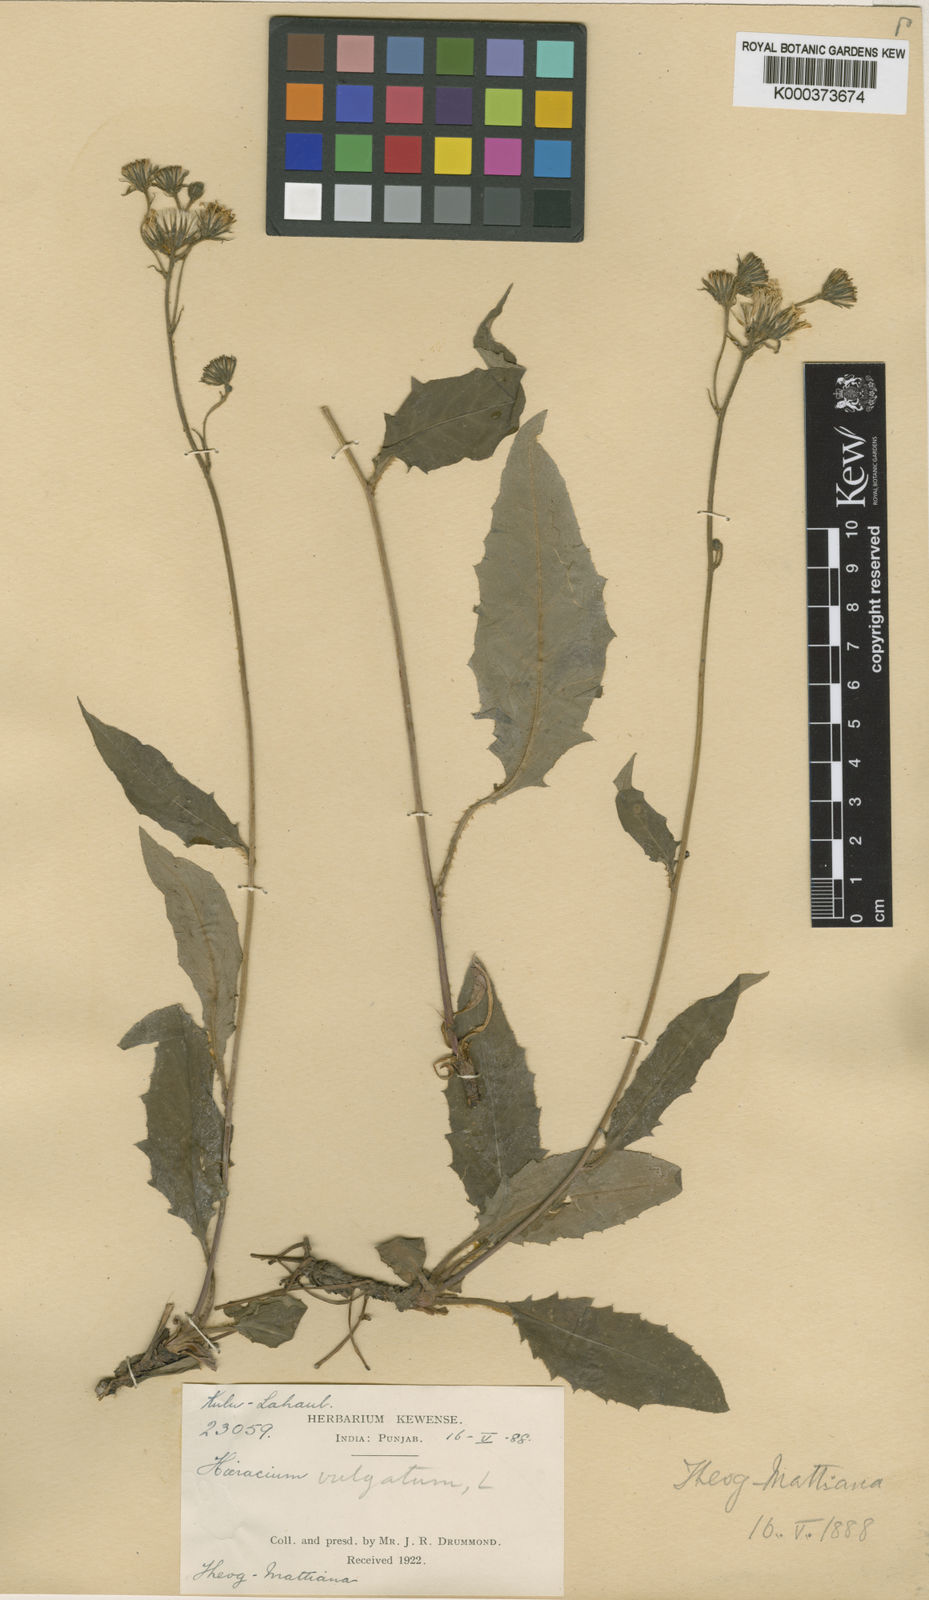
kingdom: Plantae
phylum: Tracheophyta
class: Magnoliopsida
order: Asterales
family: Asteraceae
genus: Hieracium
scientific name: Hieracium lachenalii
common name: Common hawkweed
